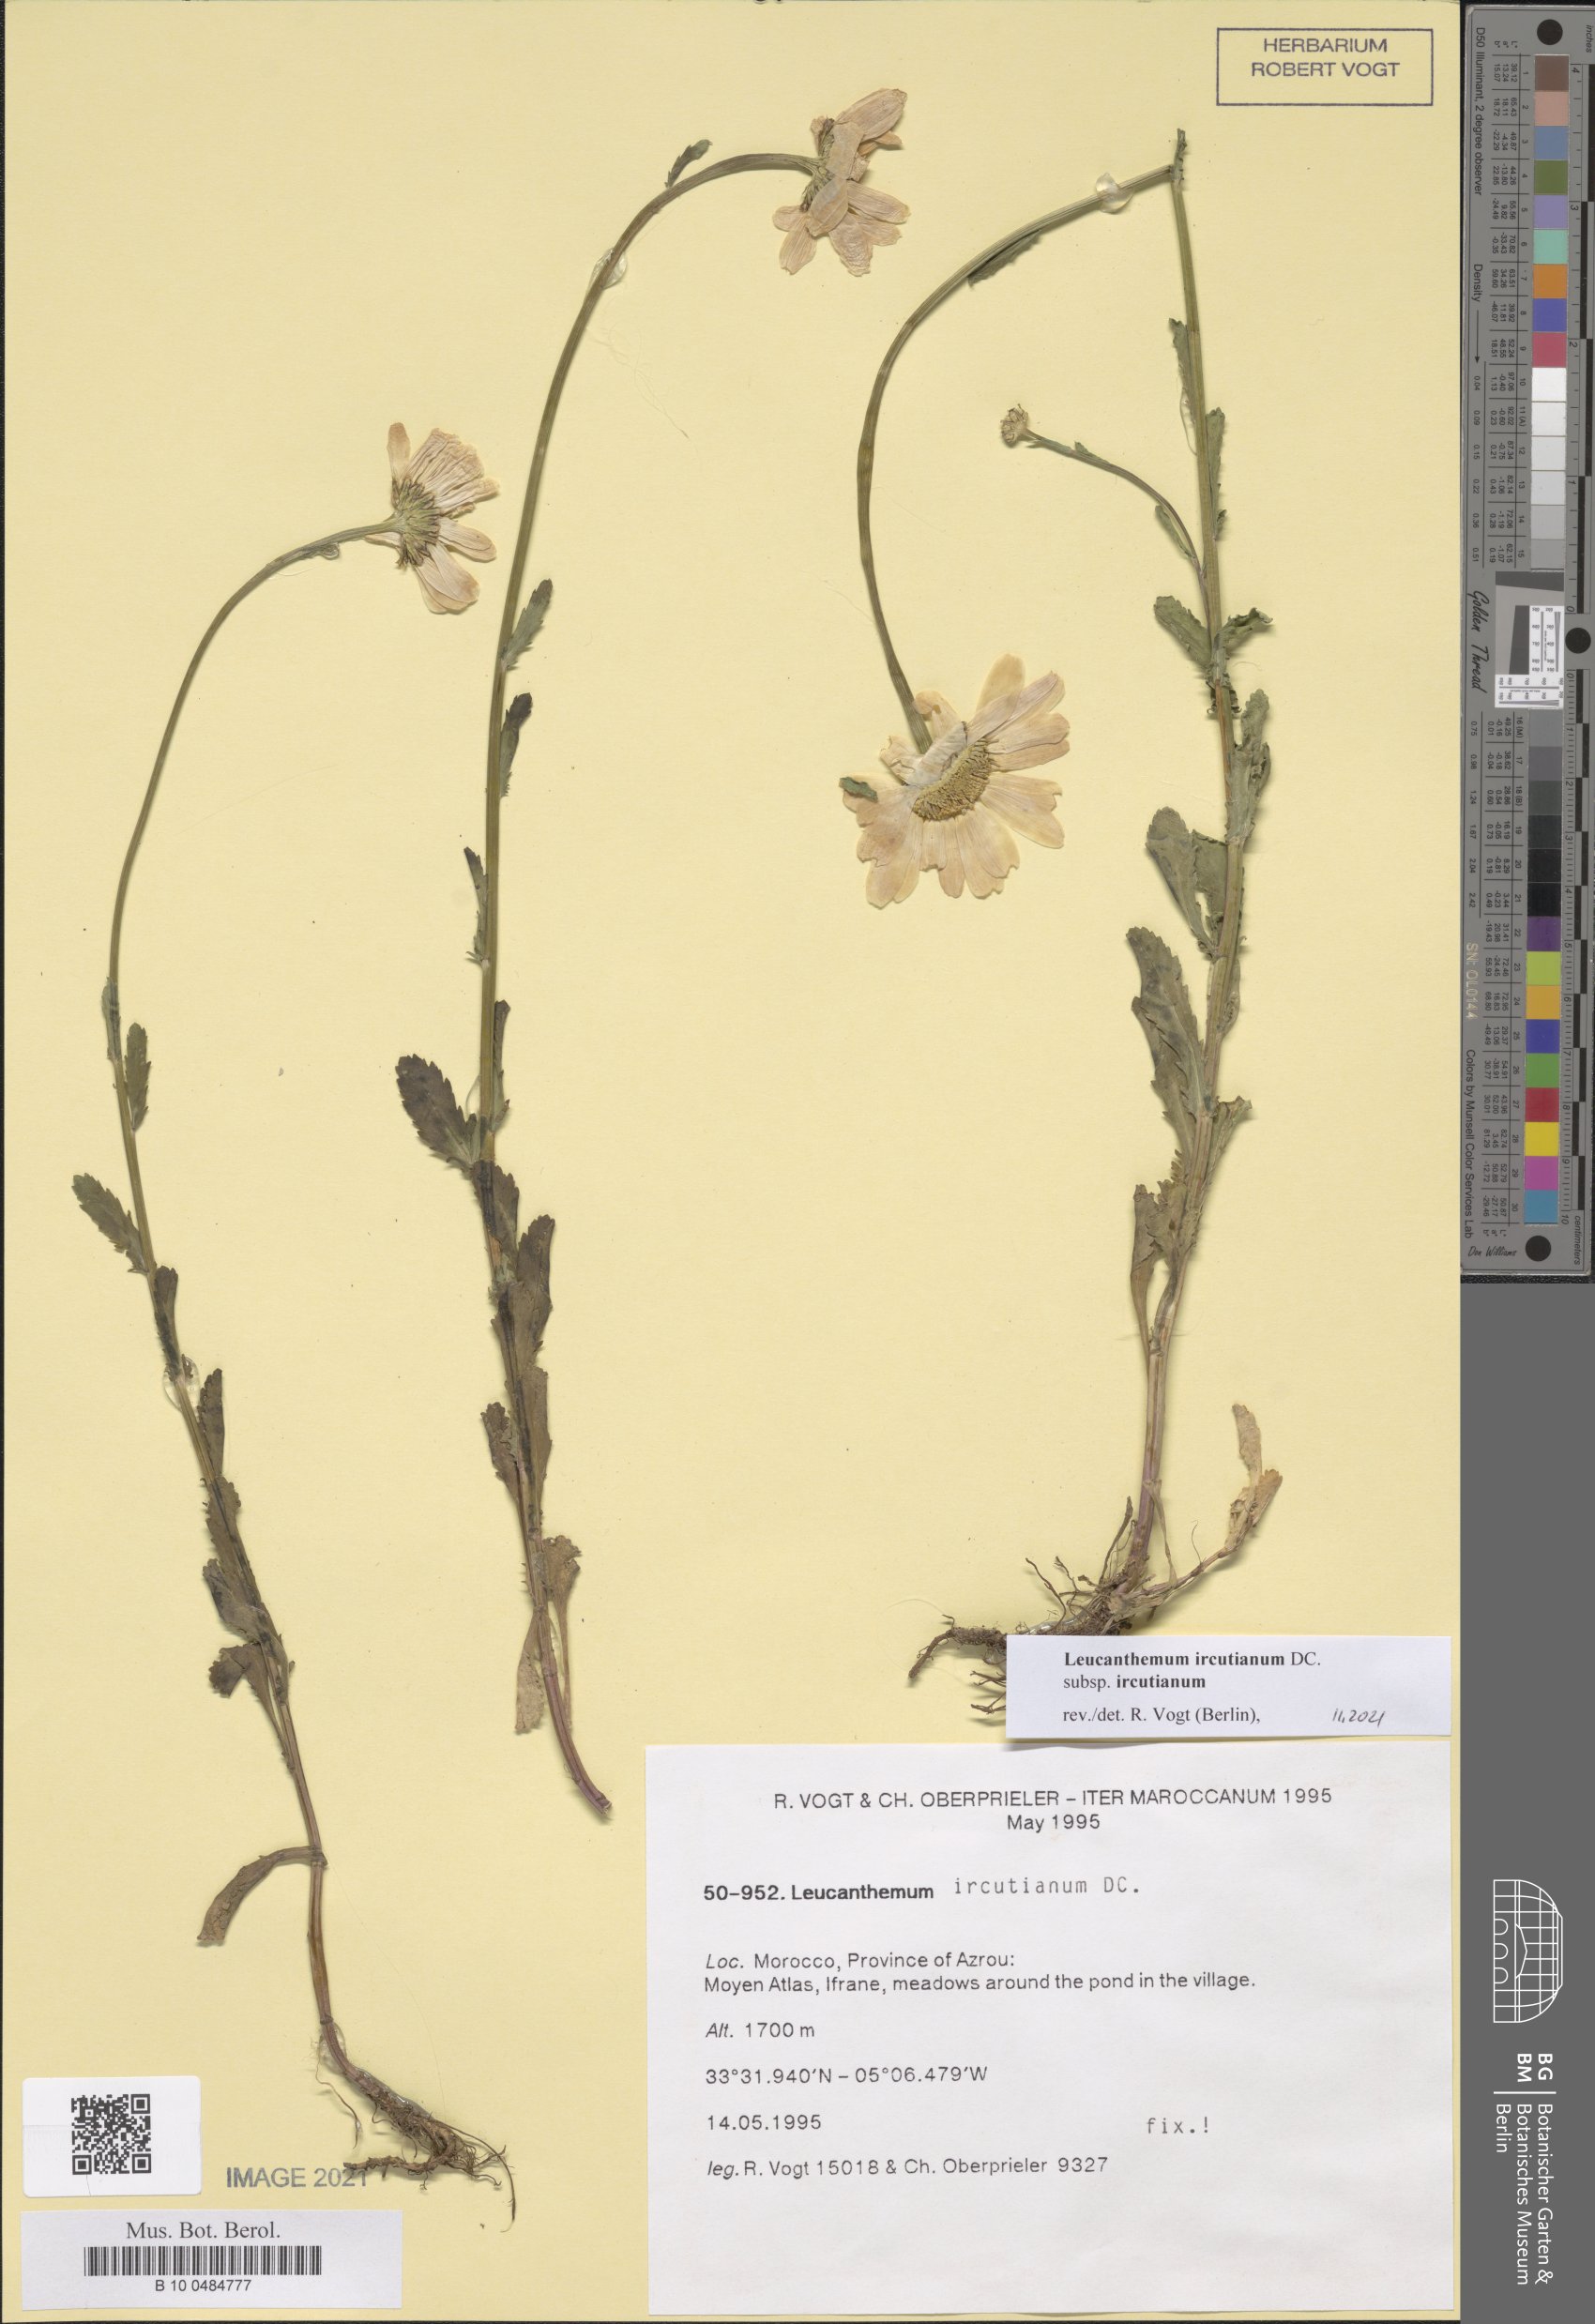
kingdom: Plantae
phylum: Tracheophyta
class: Magnoliopsida
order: Asterales
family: Asteraceae
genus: Leucanthemum
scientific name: Leucanthemum ircutianum
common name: Daisy
